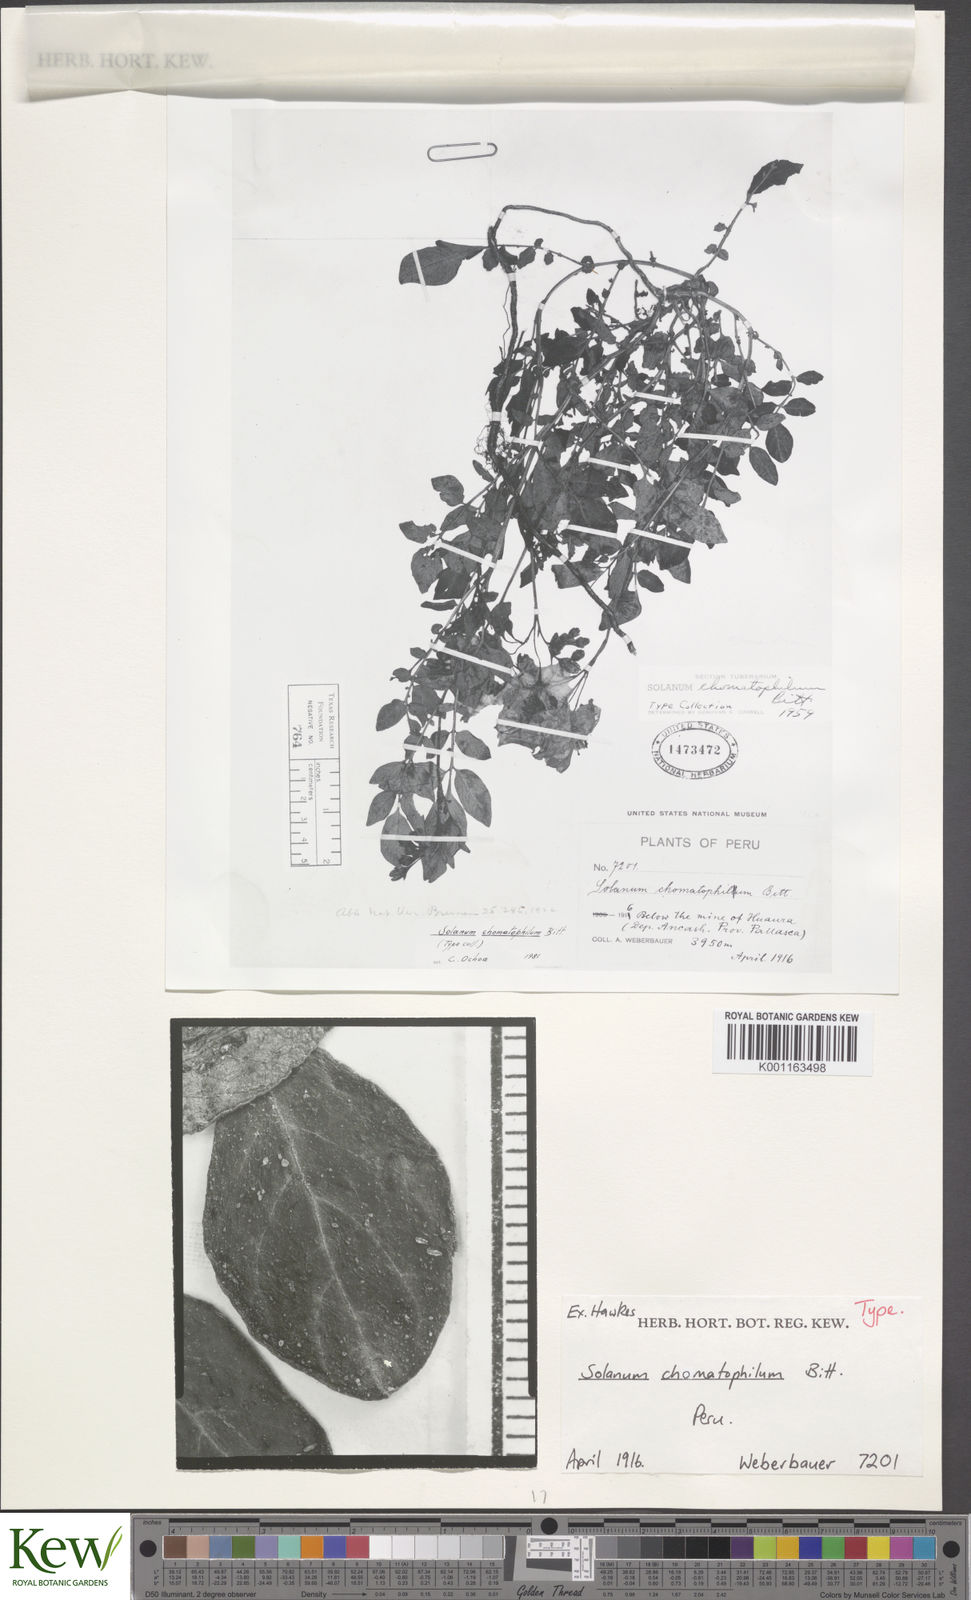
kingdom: Plantae
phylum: Tracheophyta
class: Magnoliopsida
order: Solanales
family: Solanaceae
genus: Solanum
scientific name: Solanum chomatophilum
